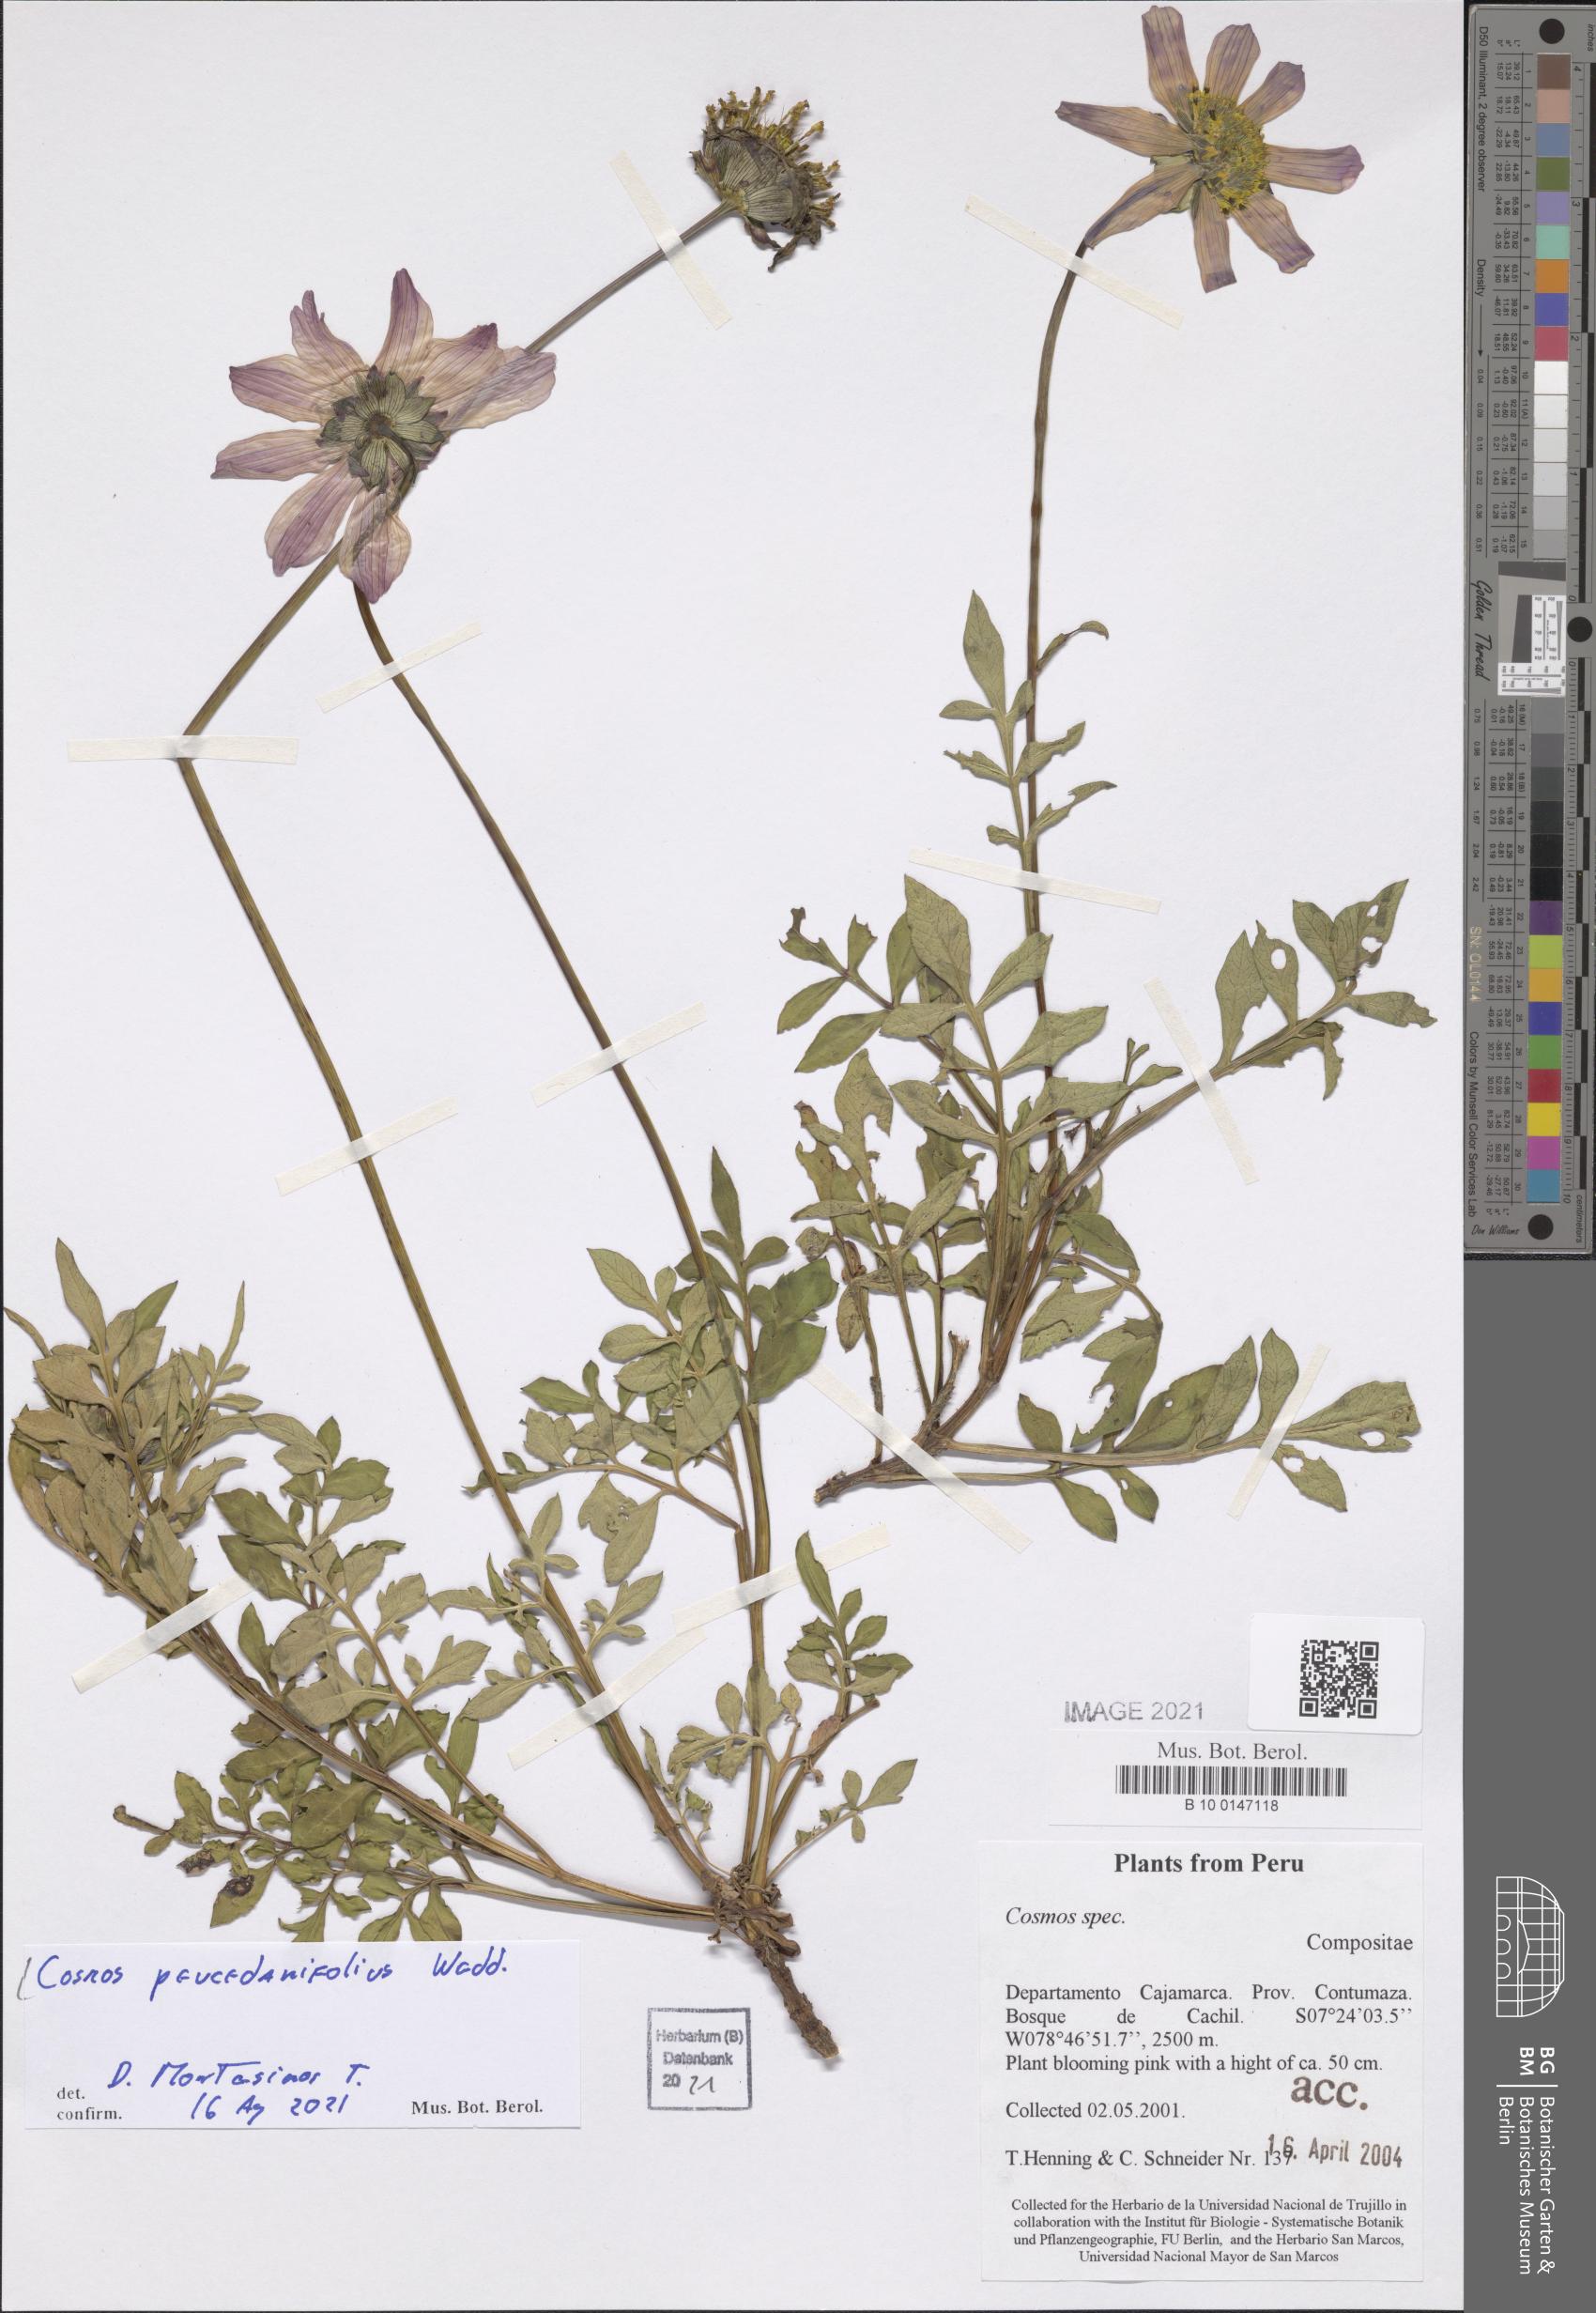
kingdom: Plantae
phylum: Tracheophyta
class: Magnoliopsida
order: Asterales
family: Asteraceae
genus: Cosmos
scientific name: Cosmos peucedanifolius
